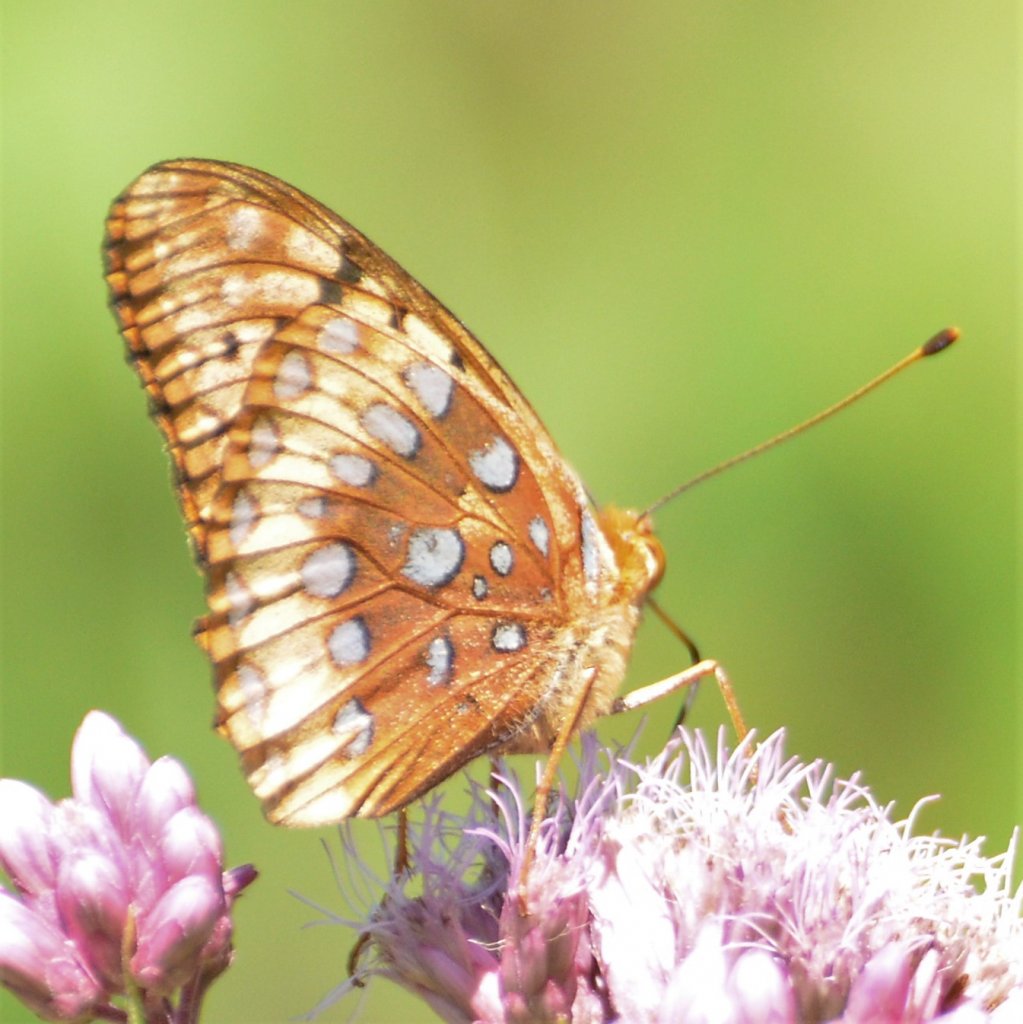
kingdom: Animalia
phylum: Arthropoda
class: Insecta
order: Lepidoptera
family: Nymphalidae
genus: Speyeria
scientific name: Speyeria cybele
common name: Great Spangled Fritillary
